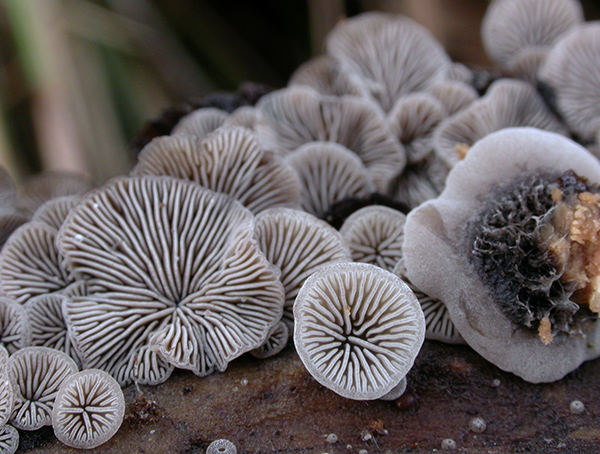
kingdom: Fungi
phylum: Basidiomycota
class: Agaricomycetes
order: Agaricales
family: Pleurotaceae
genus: Resupinatus
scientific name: Resupinatus trichotis
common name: mørkfiltet barkhat
